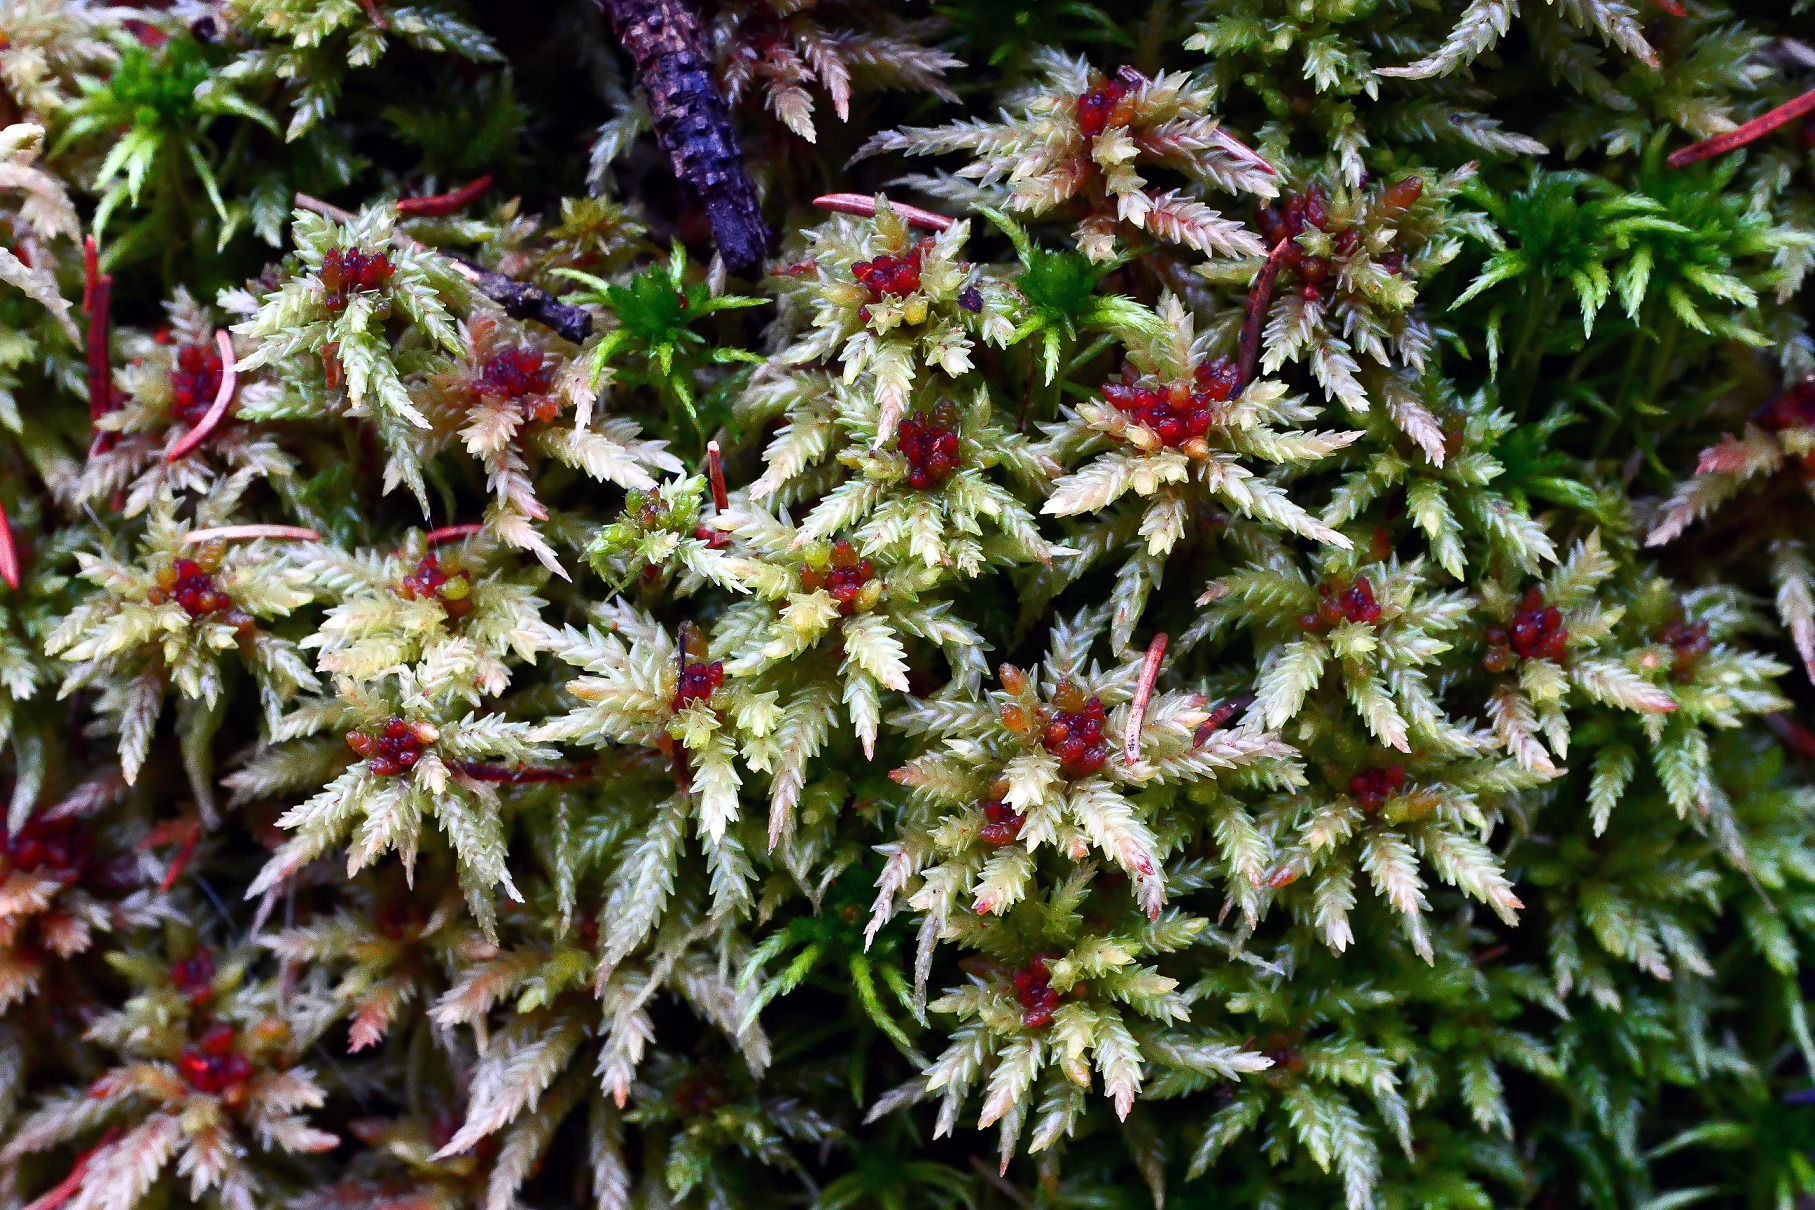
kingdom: Plantae
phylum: Bryophyta
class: Sphagnopsida
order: Sphagnales
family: Sphagnaceae
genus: Sphagnum
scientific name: Sphagnum
